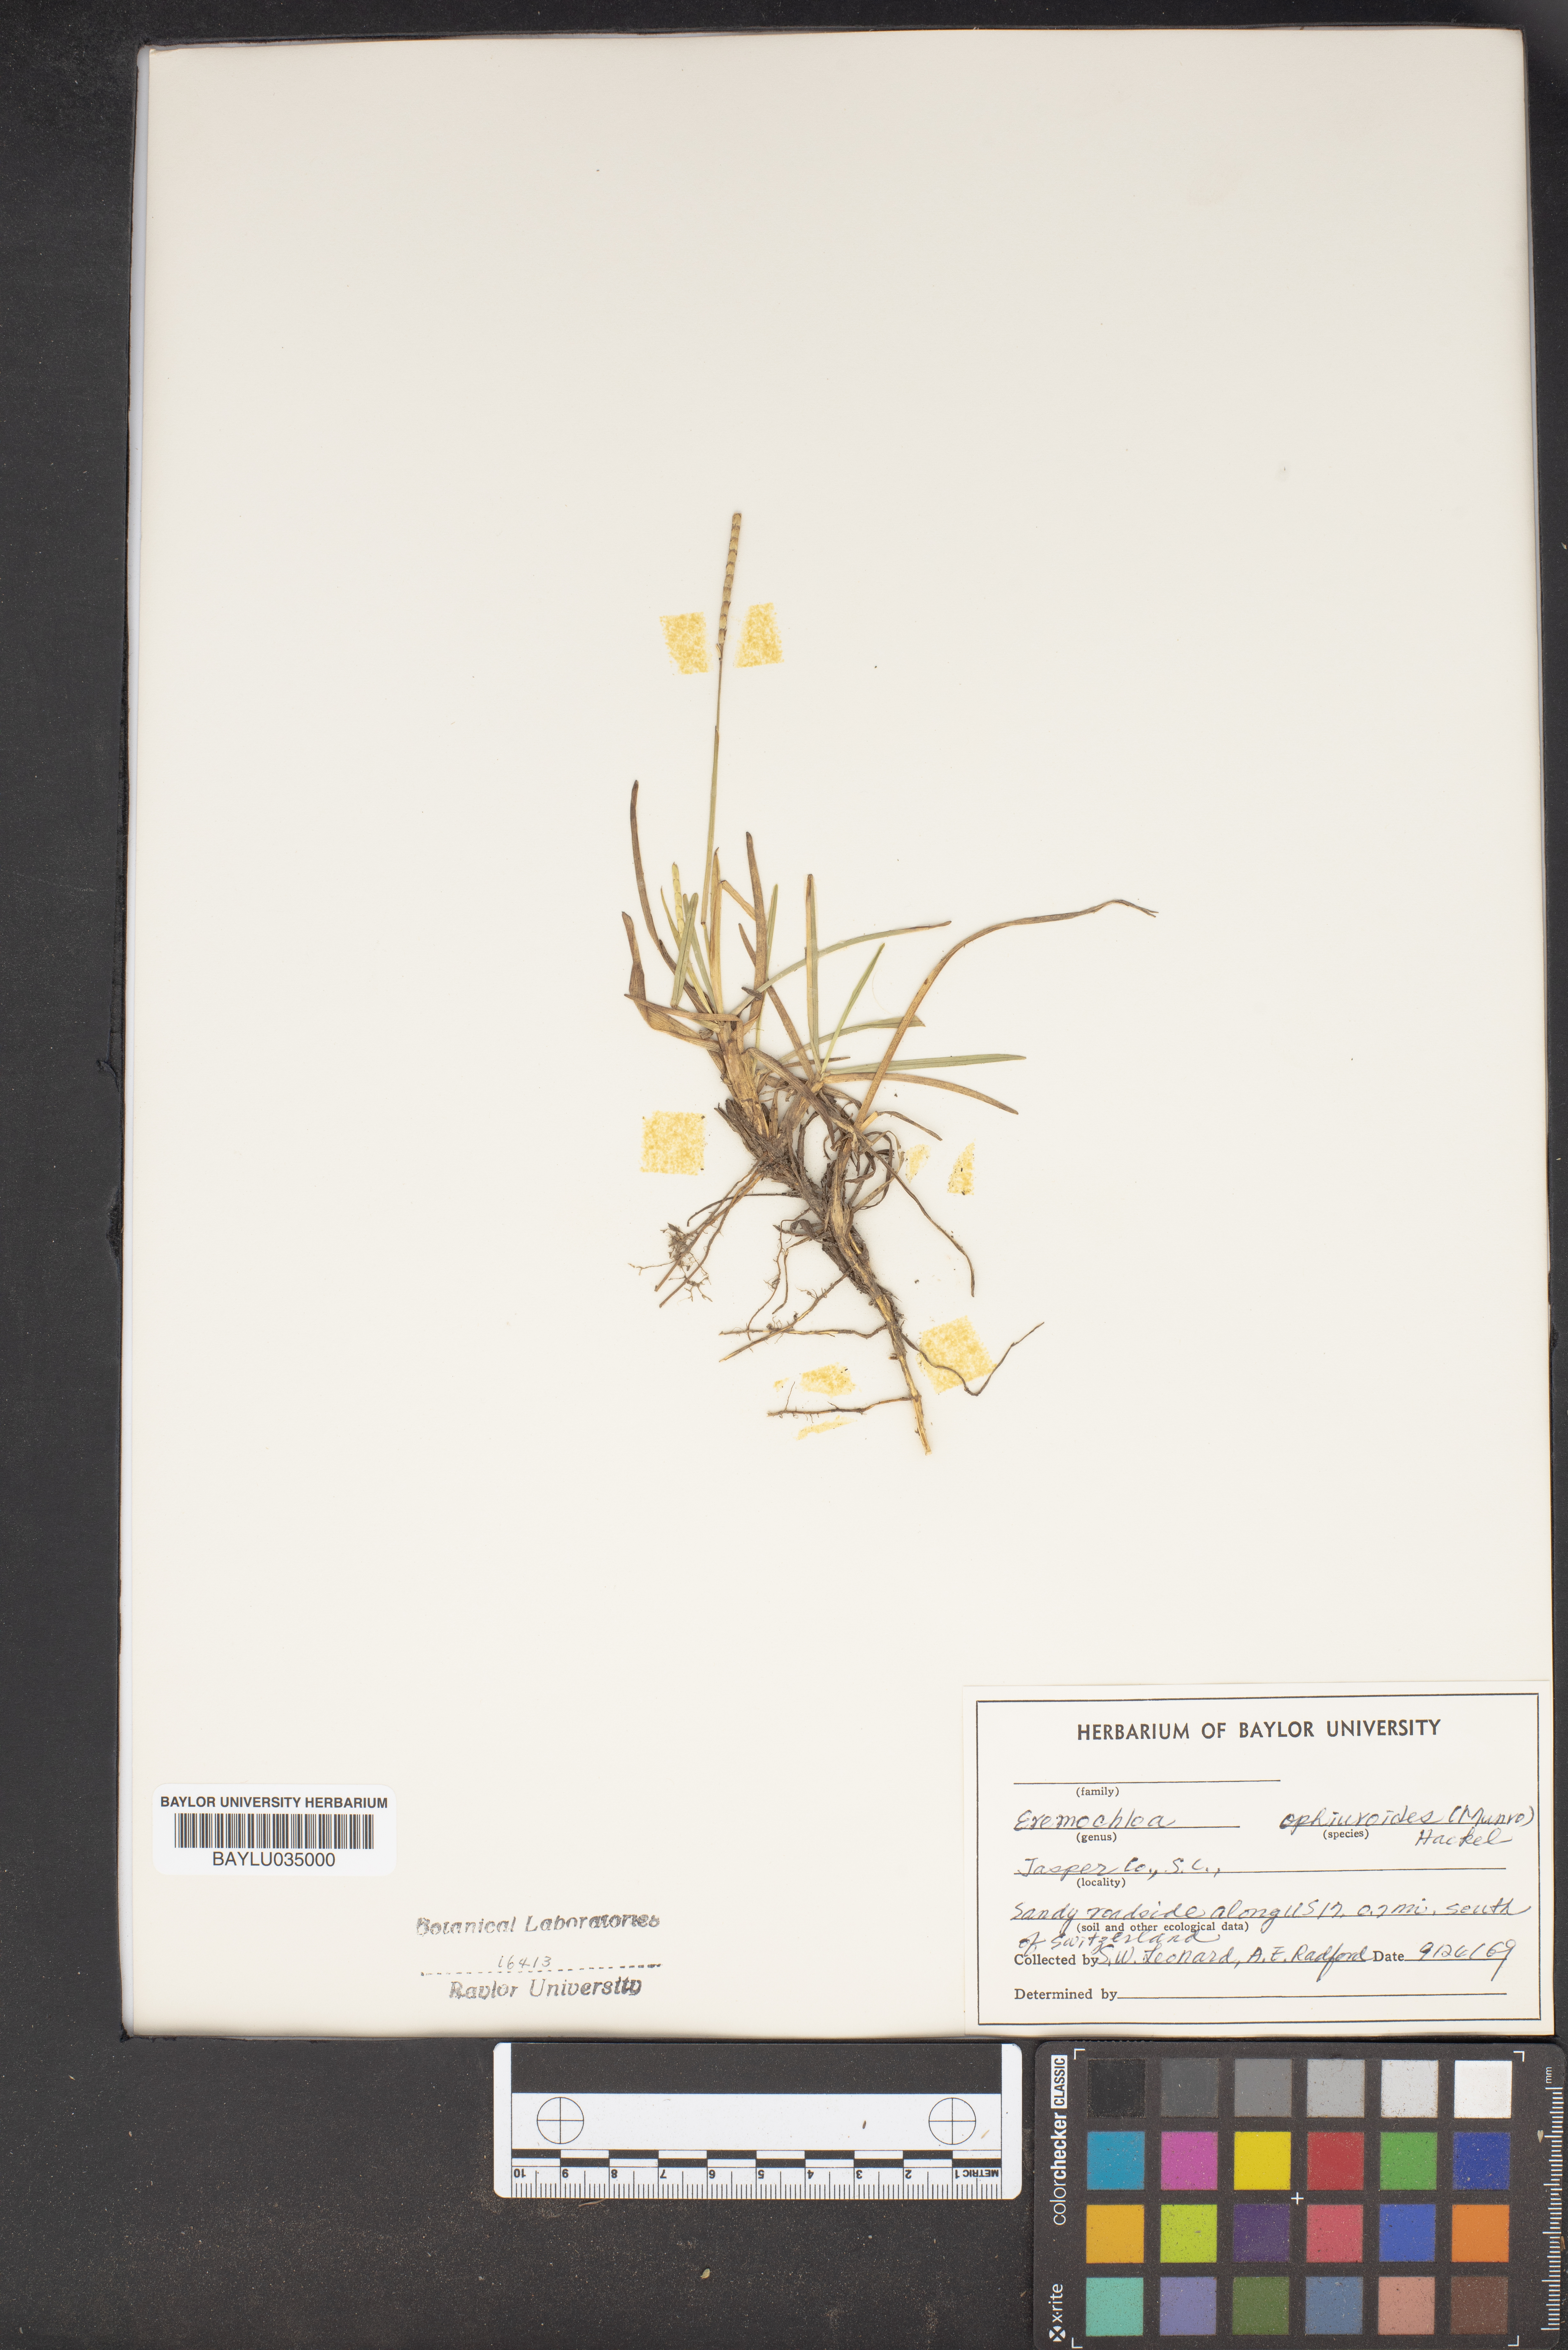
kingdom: Plantae
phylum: Tracheophyta
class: Liliopsida
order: Poales
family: Poaceae
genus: Eremochloa
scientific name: Eremochloa ophiuroides
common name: Centipede grass
